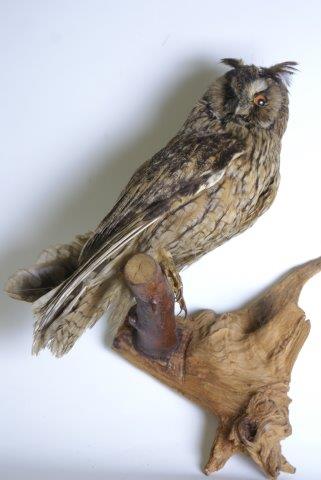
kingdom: Animalia
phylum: Chordata
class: Aves
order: Strigiformes
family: Strigidae
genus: Asio
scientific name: Asio otus
